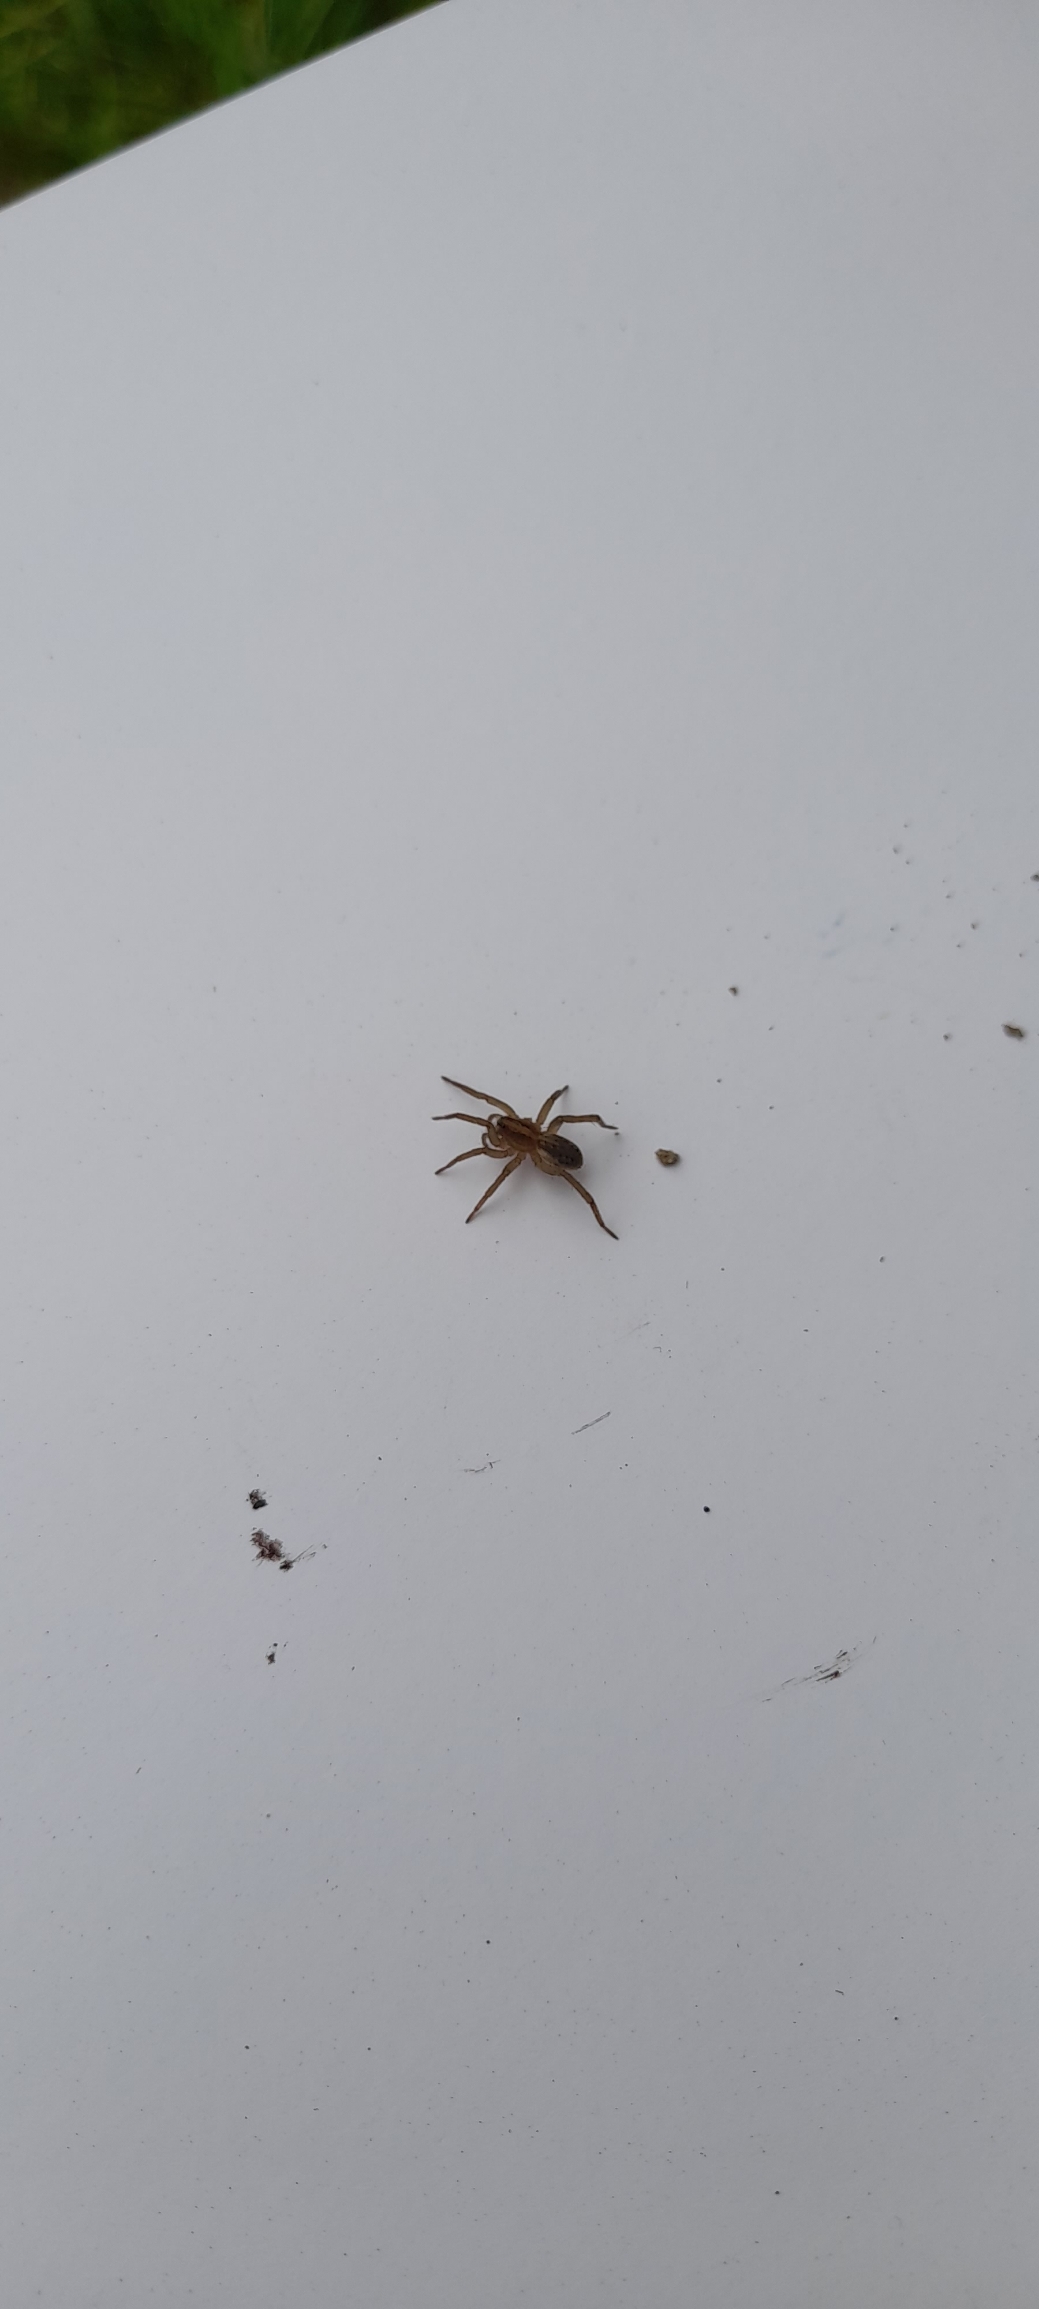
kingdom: Animalia
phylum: Arthropoda
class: Arachnida
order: Araneae
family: Lycosidae
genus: Trochosa
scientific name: Trochosa
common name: Bjørneedderkopslægten
